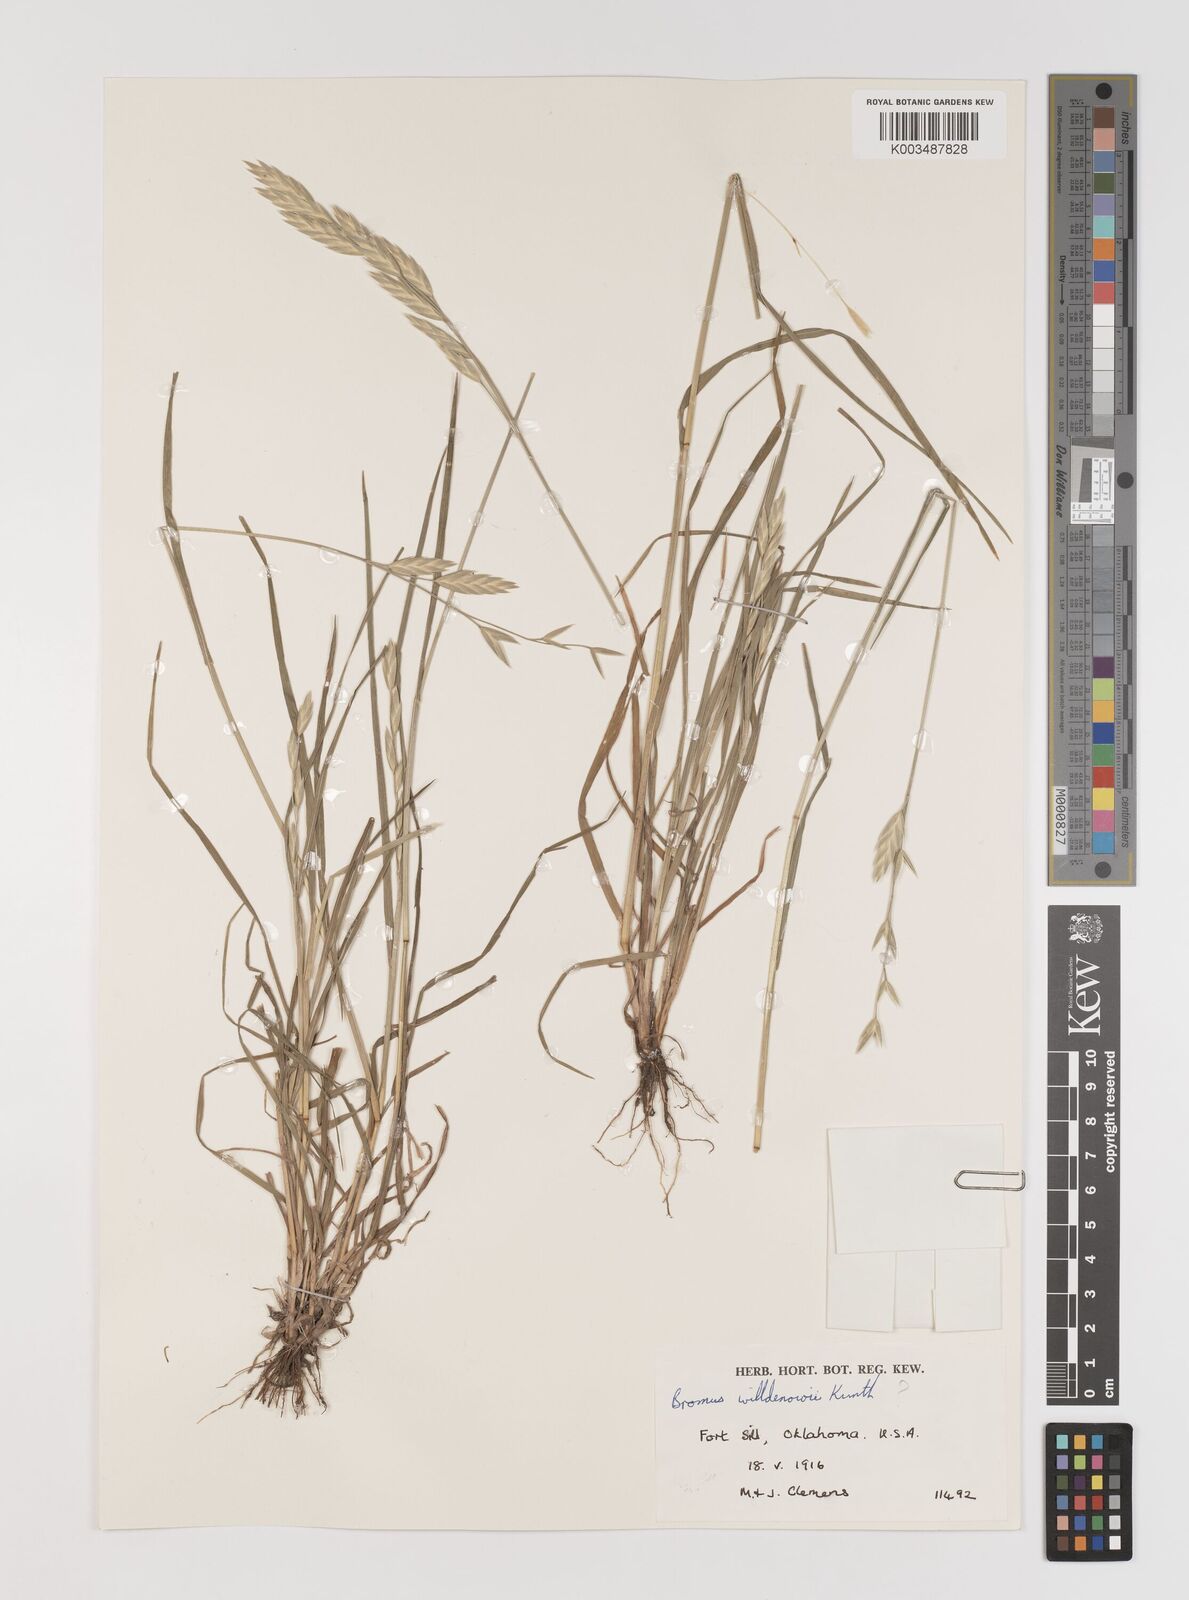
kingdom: Plantae
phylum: Tracheophyta
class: Liliopsida
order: Poales
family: Poaceae
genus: Bromus
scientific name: Bromus catharticus
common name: Rescuegrass
